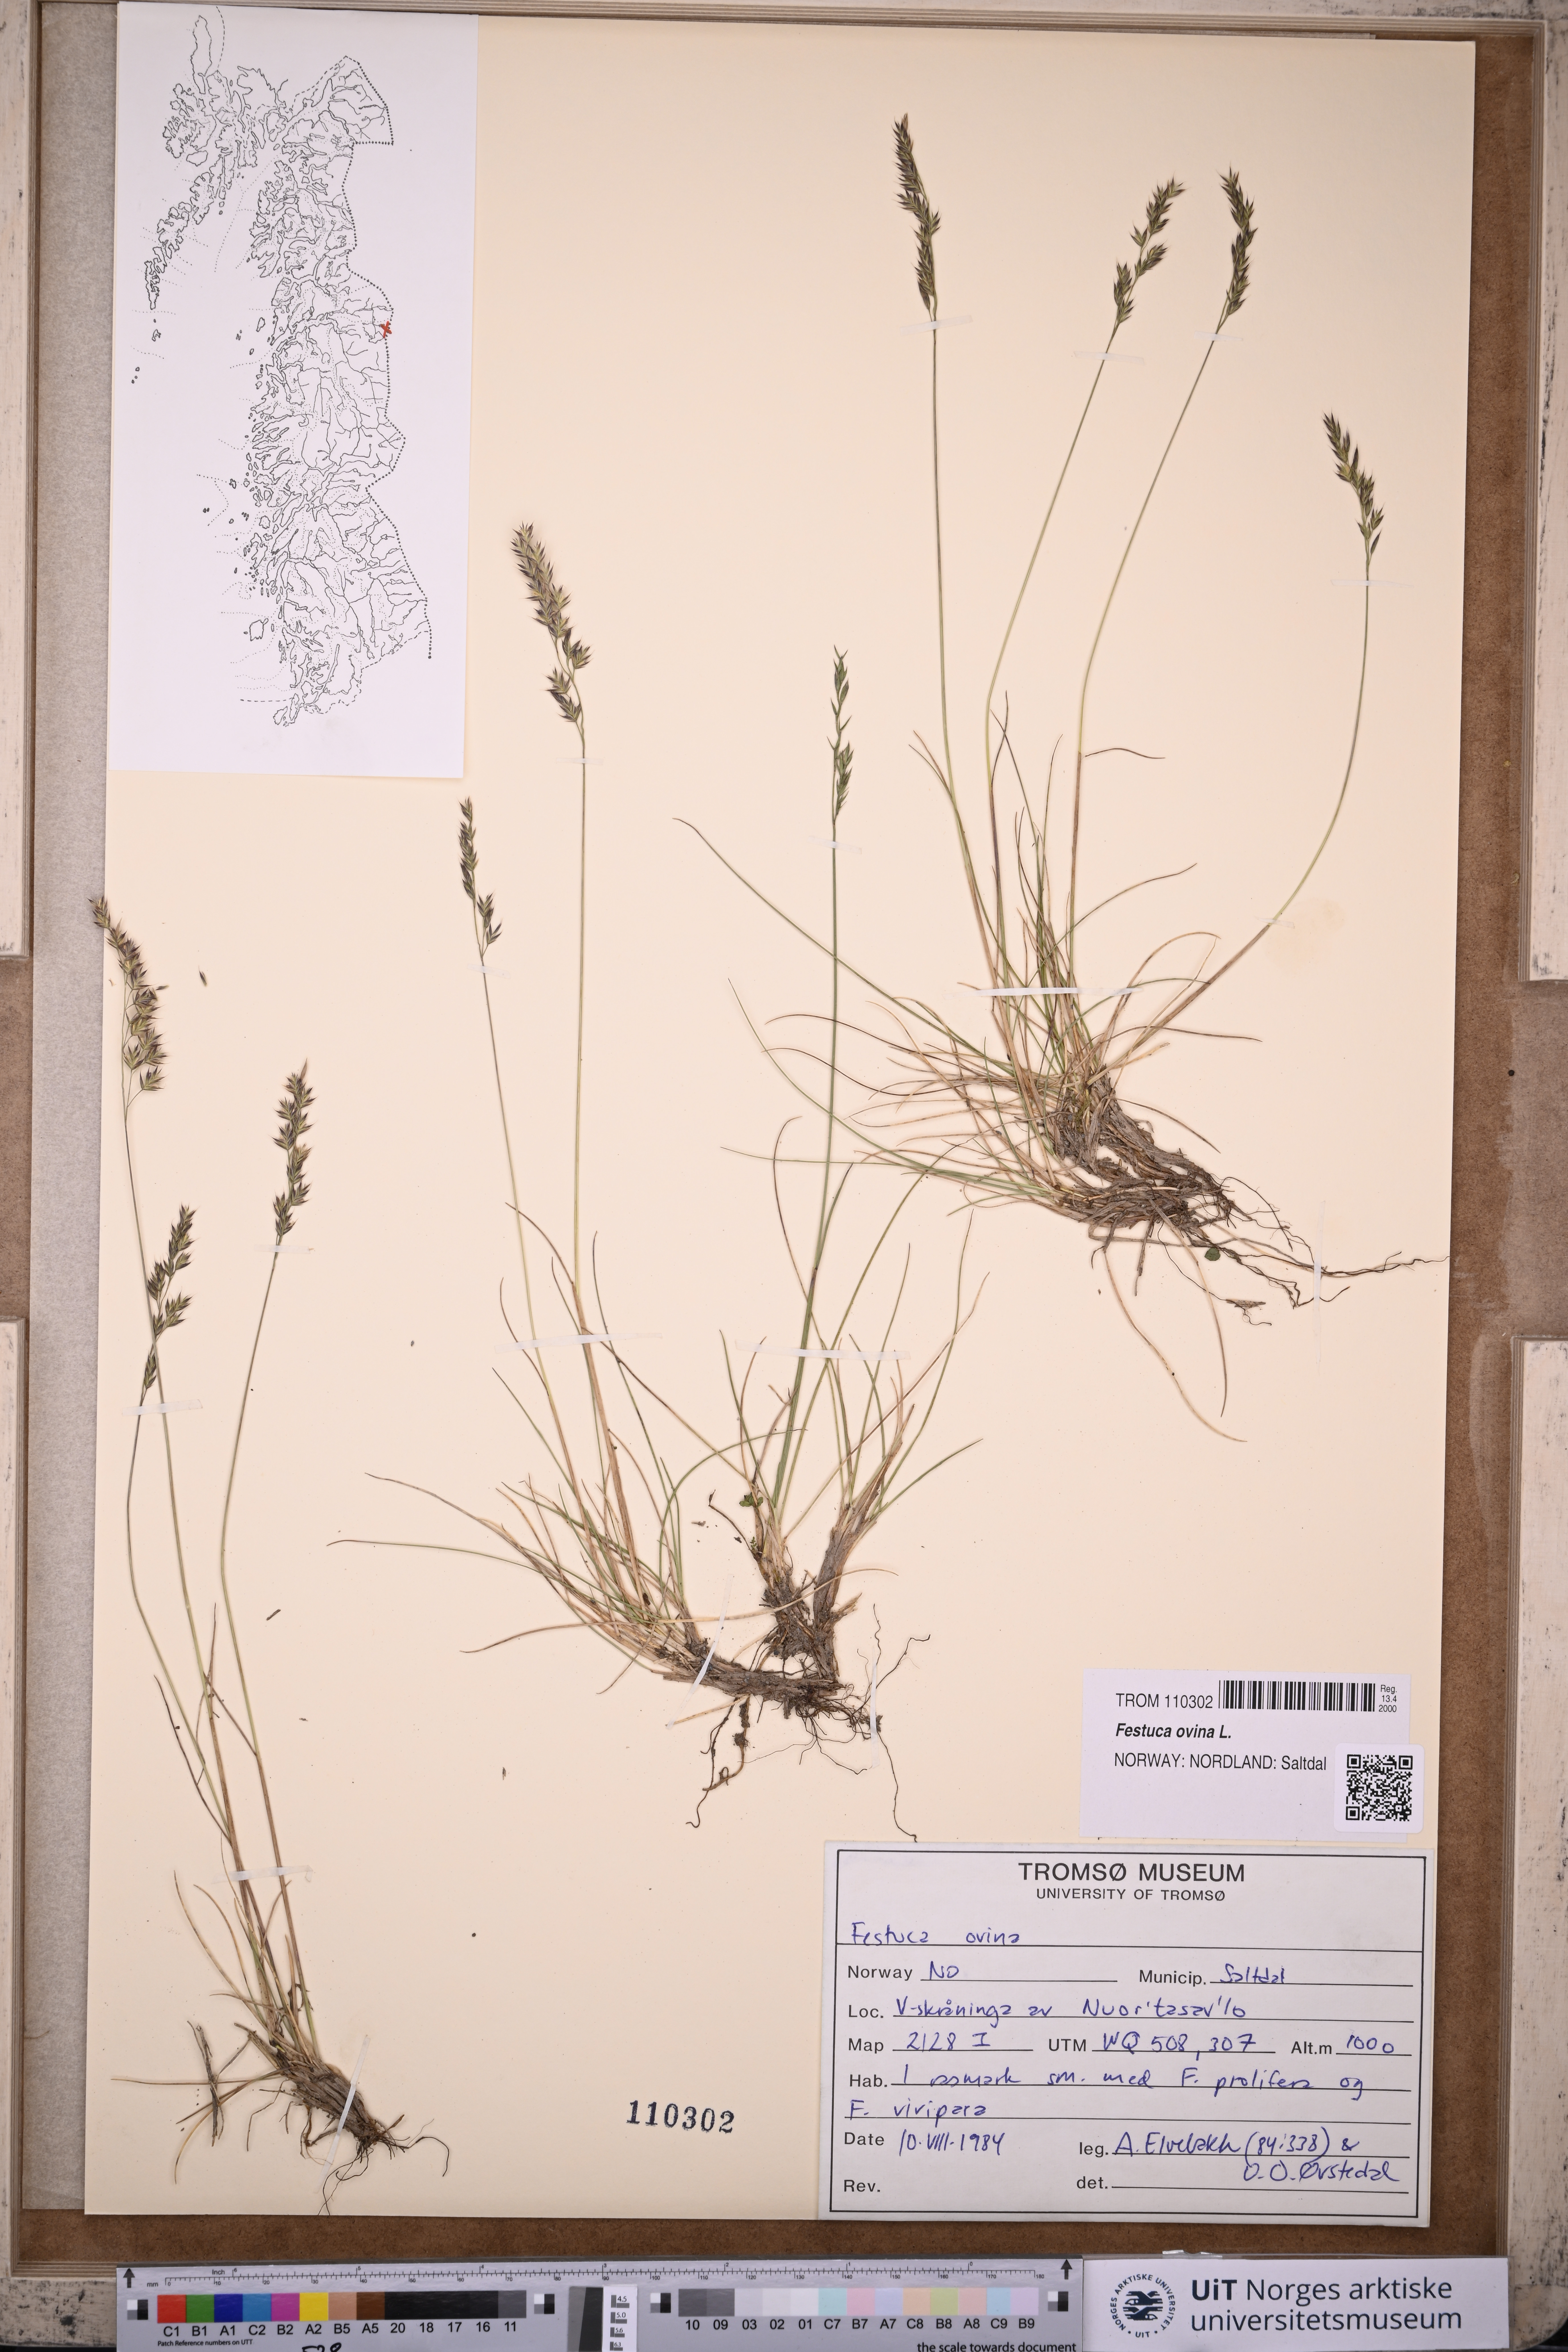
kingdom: Plantae
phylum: Tracheophyta
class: Liliopsida
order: Poales
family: Poaceae
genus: Festuca
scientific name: Festuca ovina
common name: Sheep fescue
